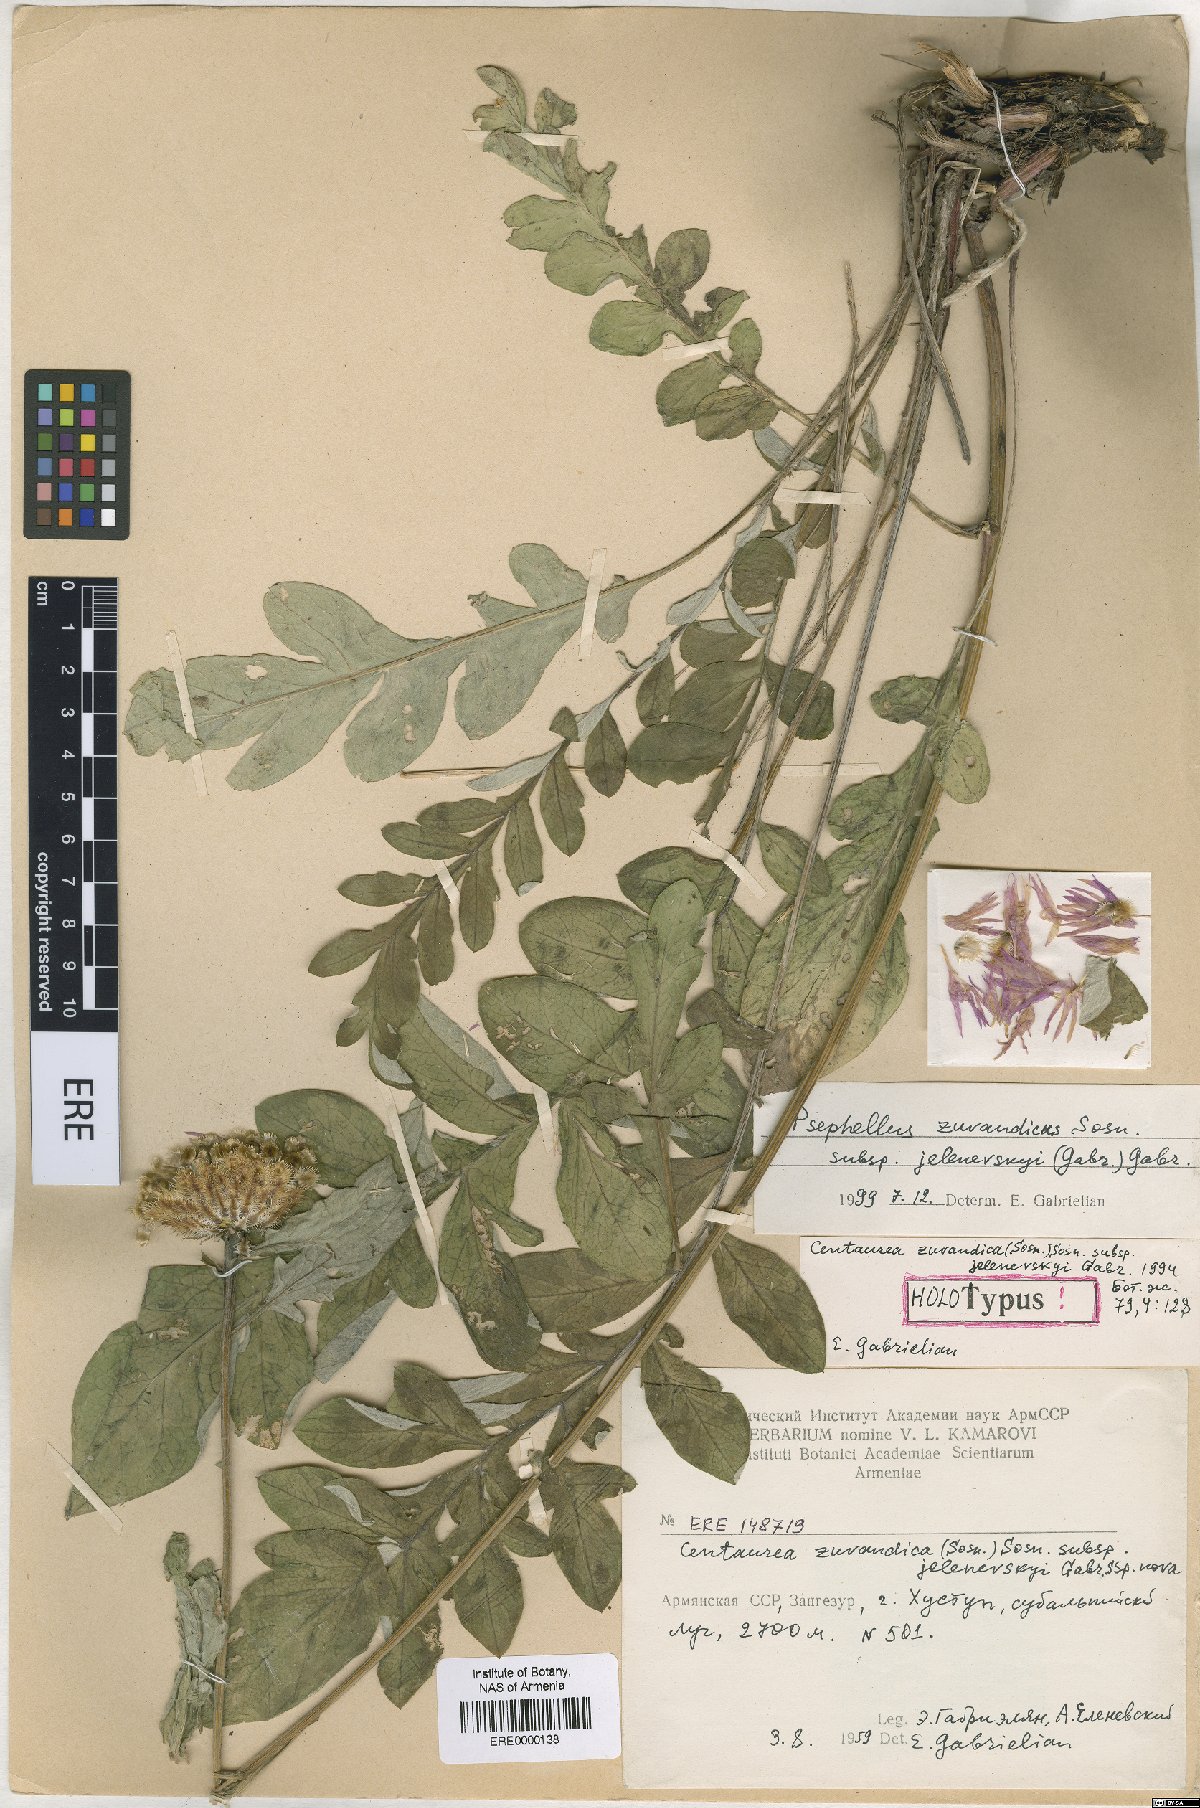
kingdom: Plantae
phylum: Tracheophyta
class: Magnoliopsida
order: Asterales
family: Asteraceae
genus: Psephellus
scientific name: Psephellus zuvandicus
